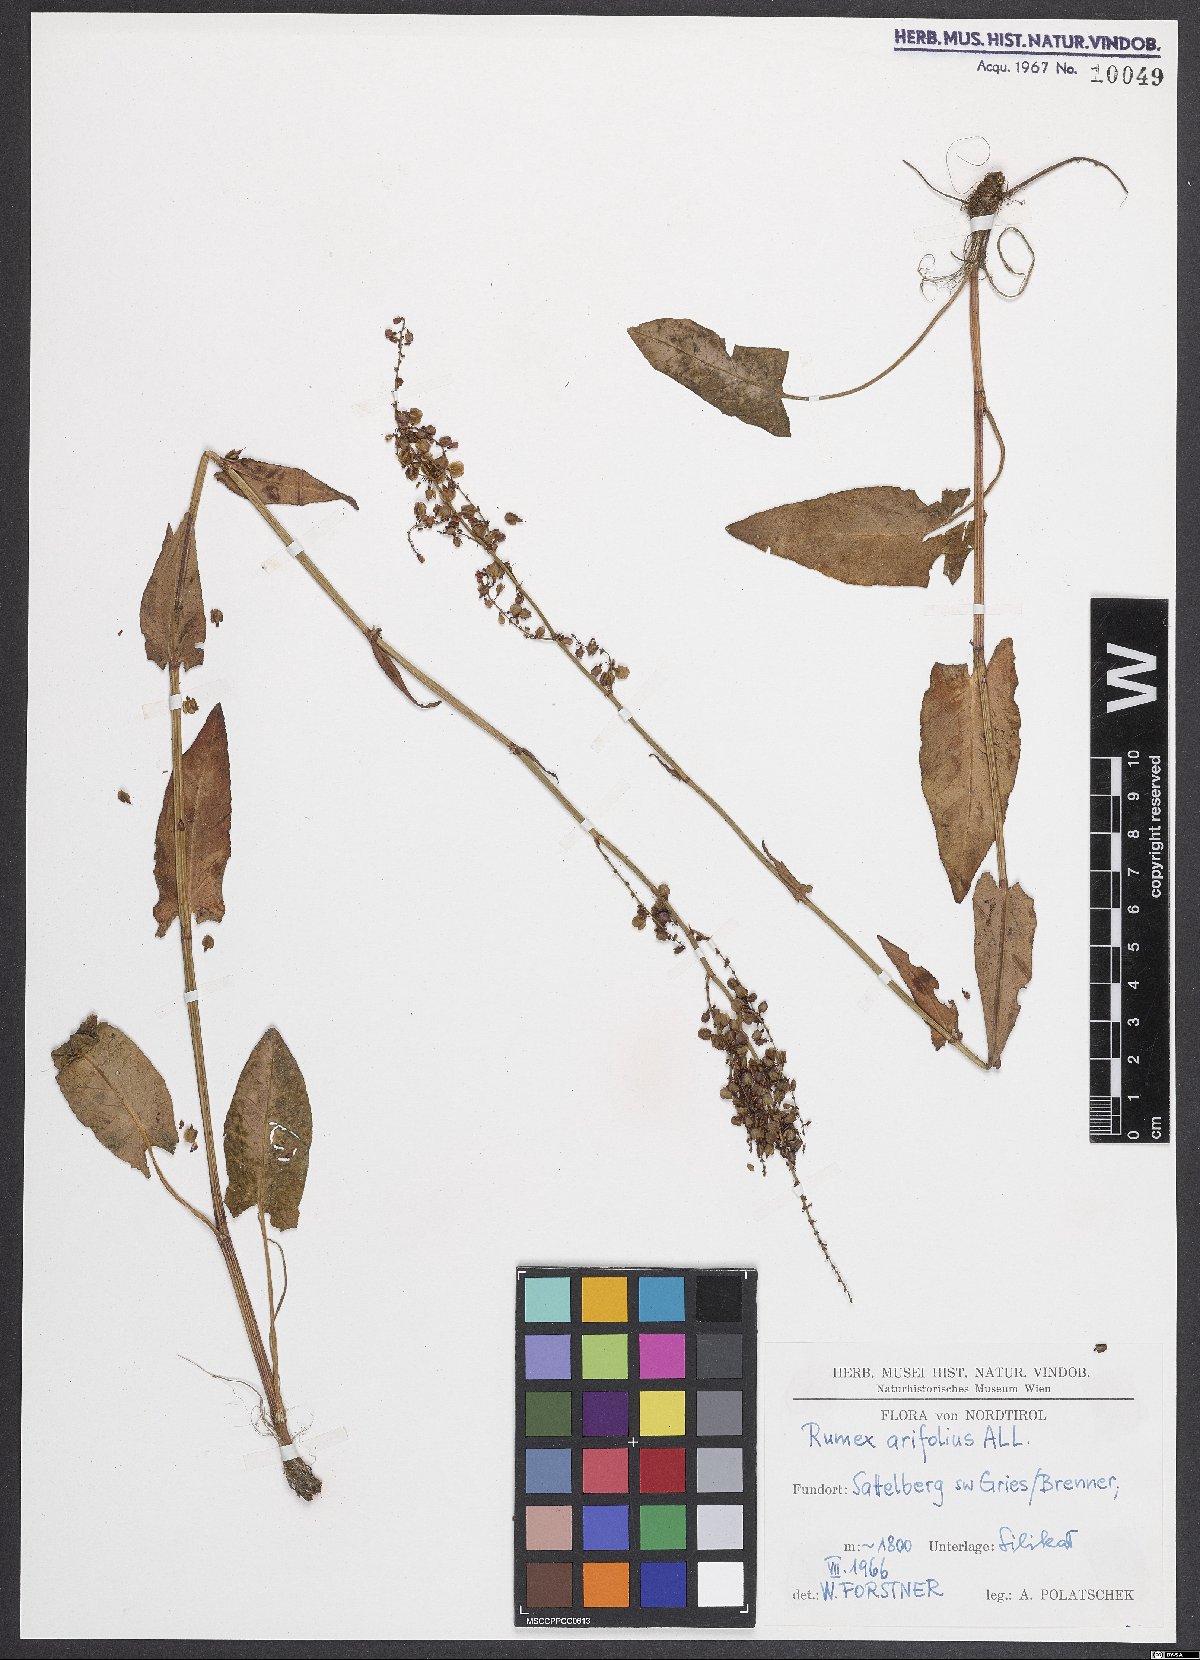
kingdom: Plantae
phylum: Tracheophyta
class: Magnoliopsida
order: Caryophyllales
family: Polygonaceae
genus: Rumex
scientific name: Rumex arifolius
